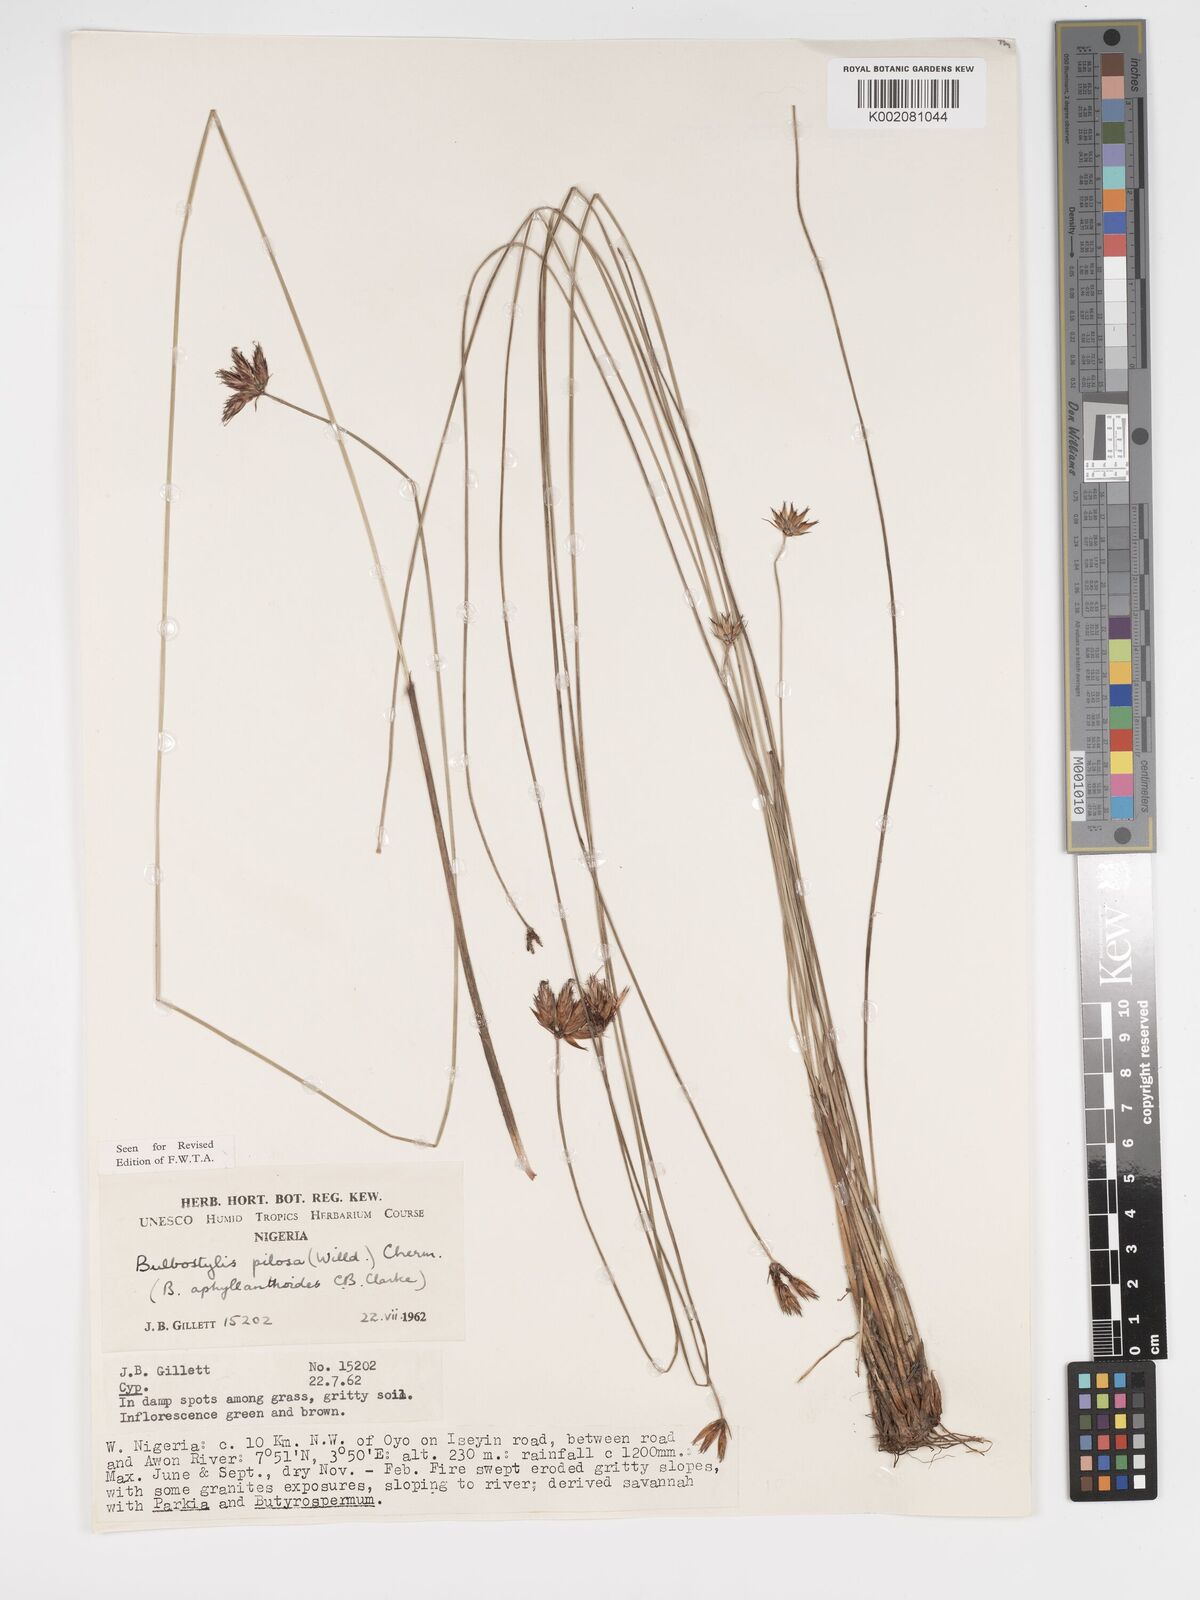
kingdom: Plantae
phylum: Tracheophyta
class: Liliopsida
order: Poales
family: Cyperaceae
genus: Bulbostylis
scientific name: Bulbostylis pilosa
